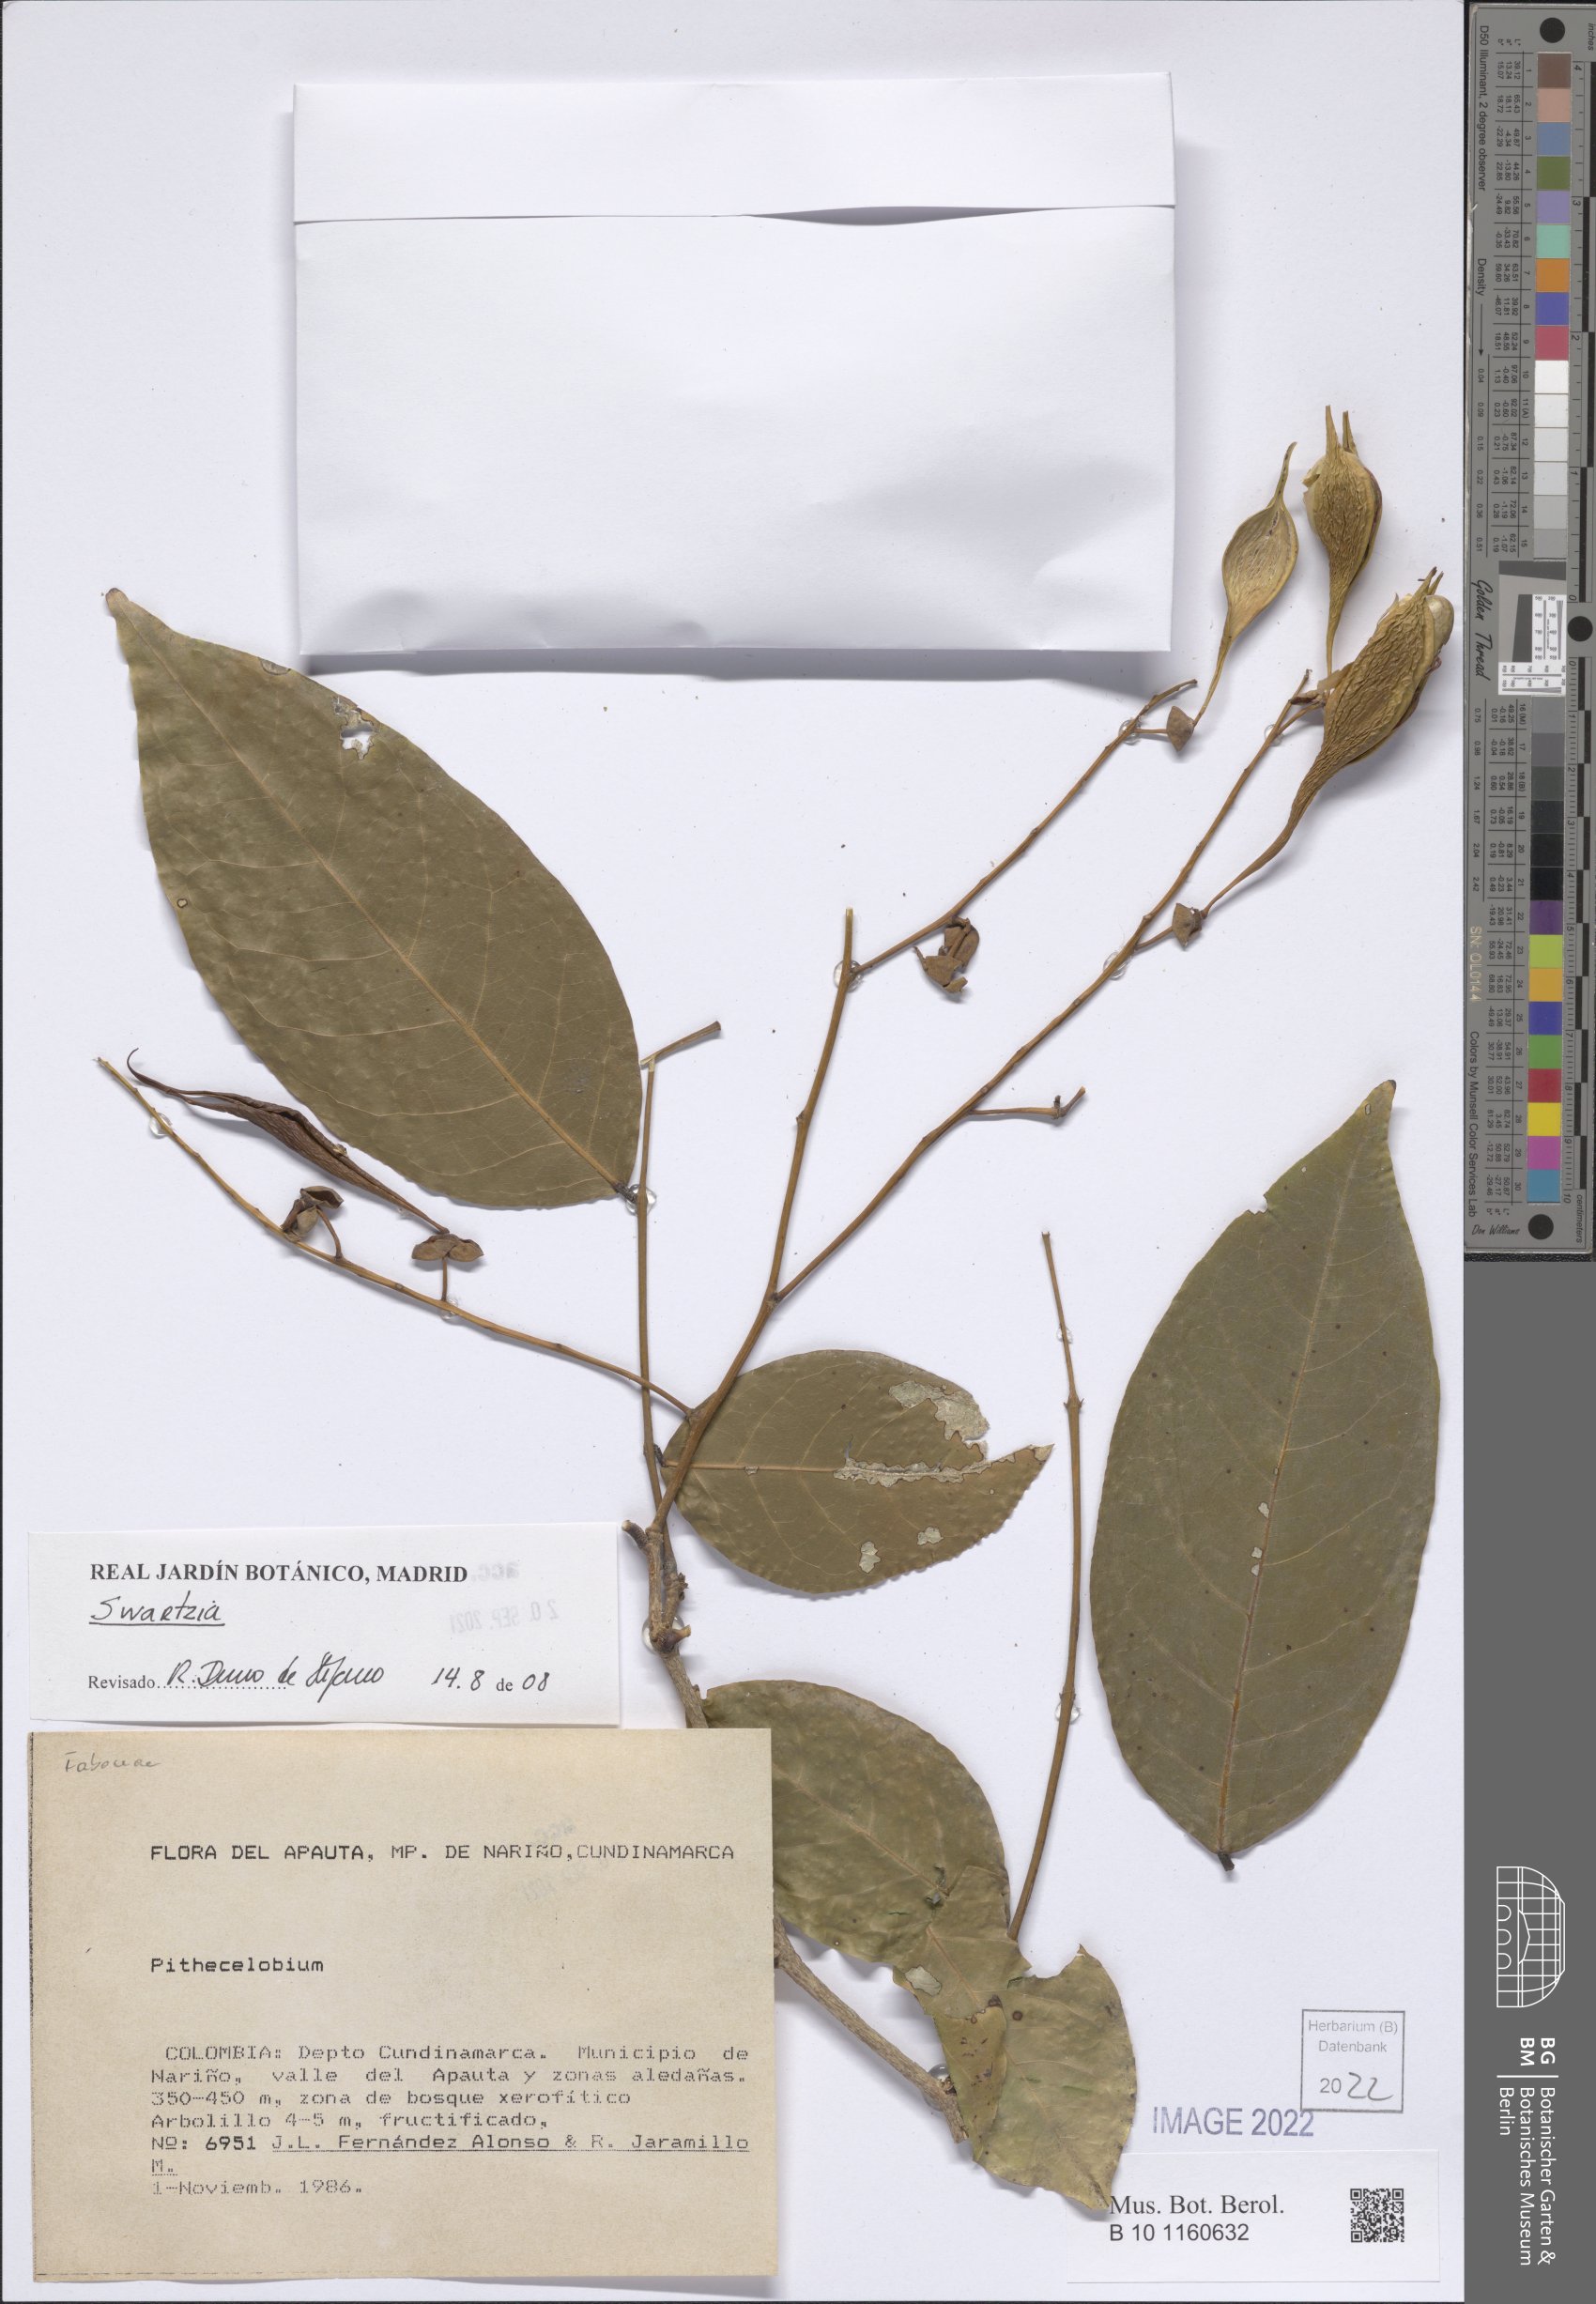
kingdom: Plantae
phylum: Tracheophyta
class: Magnoliopsida
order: Fabales
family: Fabaceae
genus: Swartzia
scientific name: Swartzia
